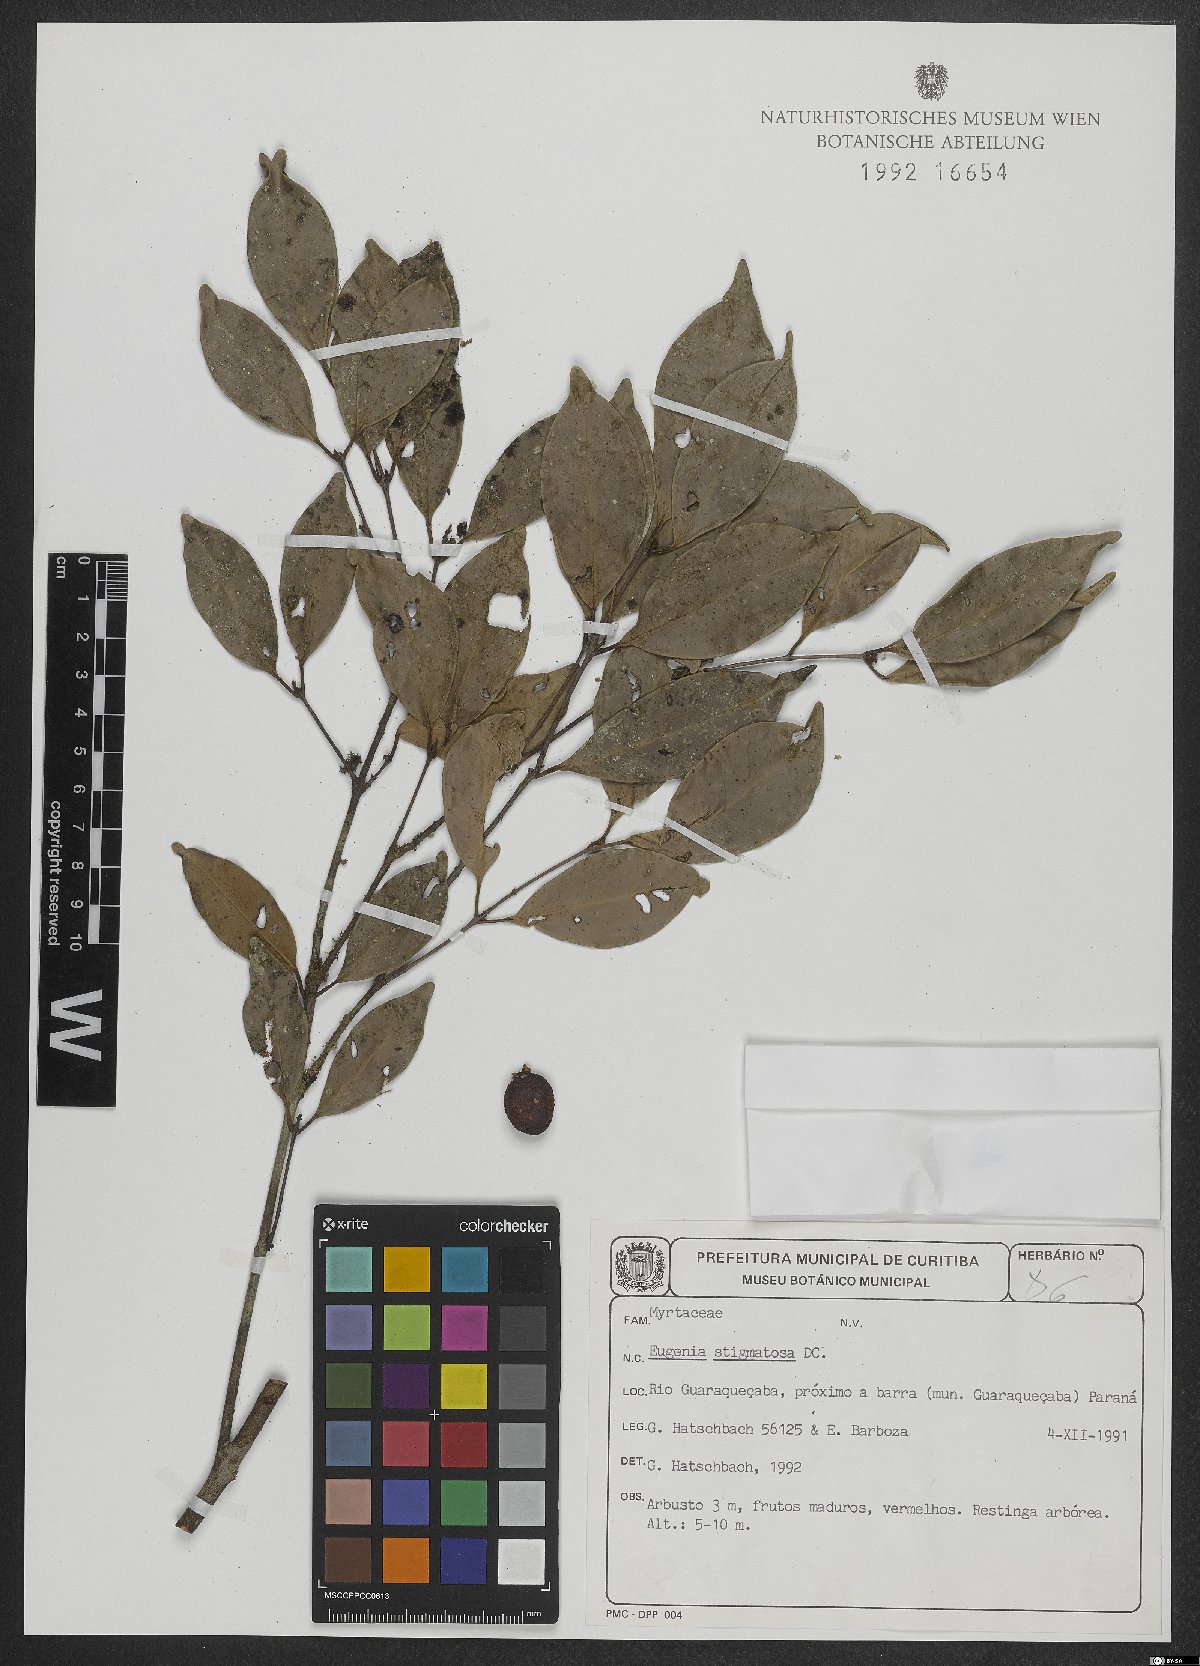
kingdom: Plantae
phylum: Tracheophyta
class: Magnoliopsida
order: Myrtales
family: Myrtaceae
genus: Eugenia
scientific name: Eugenia stigmatosa
